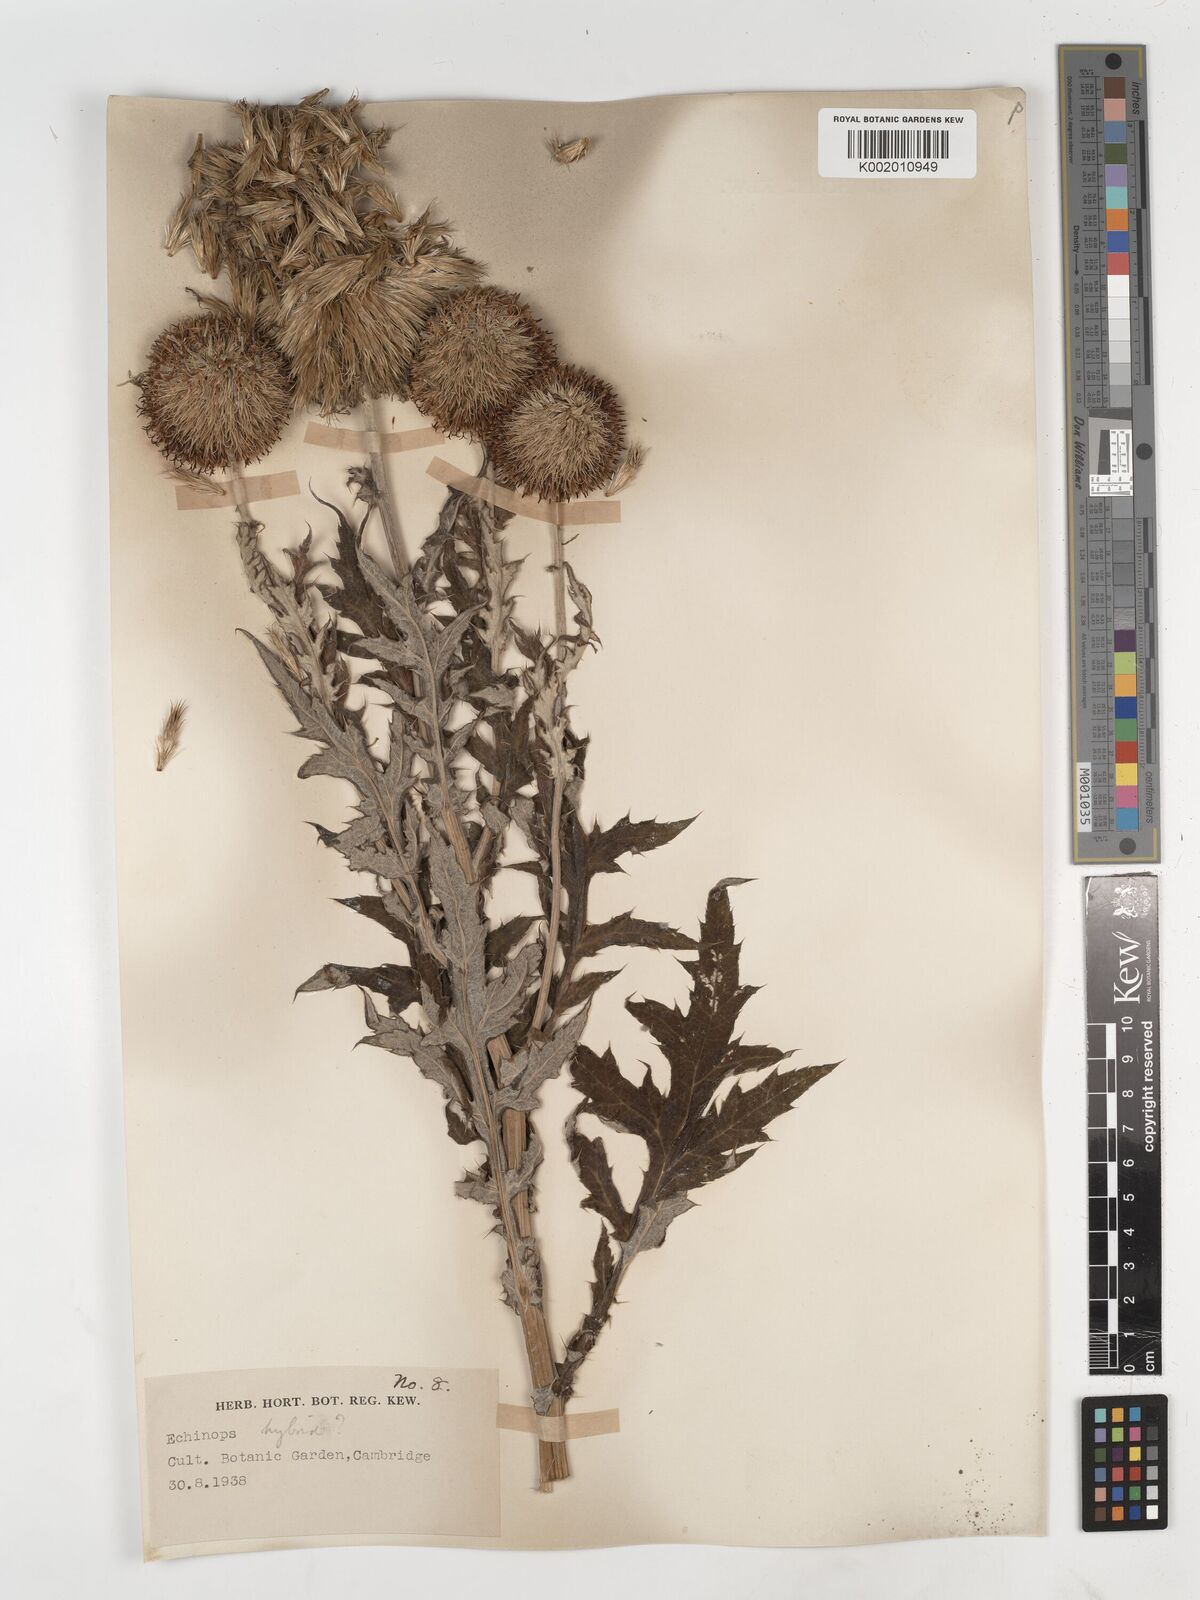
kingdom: Plantae
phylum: Tracheophyta
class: Magnoliopsida
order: Asterales
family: Asteraceae
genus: Echinops
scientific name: Echinops
